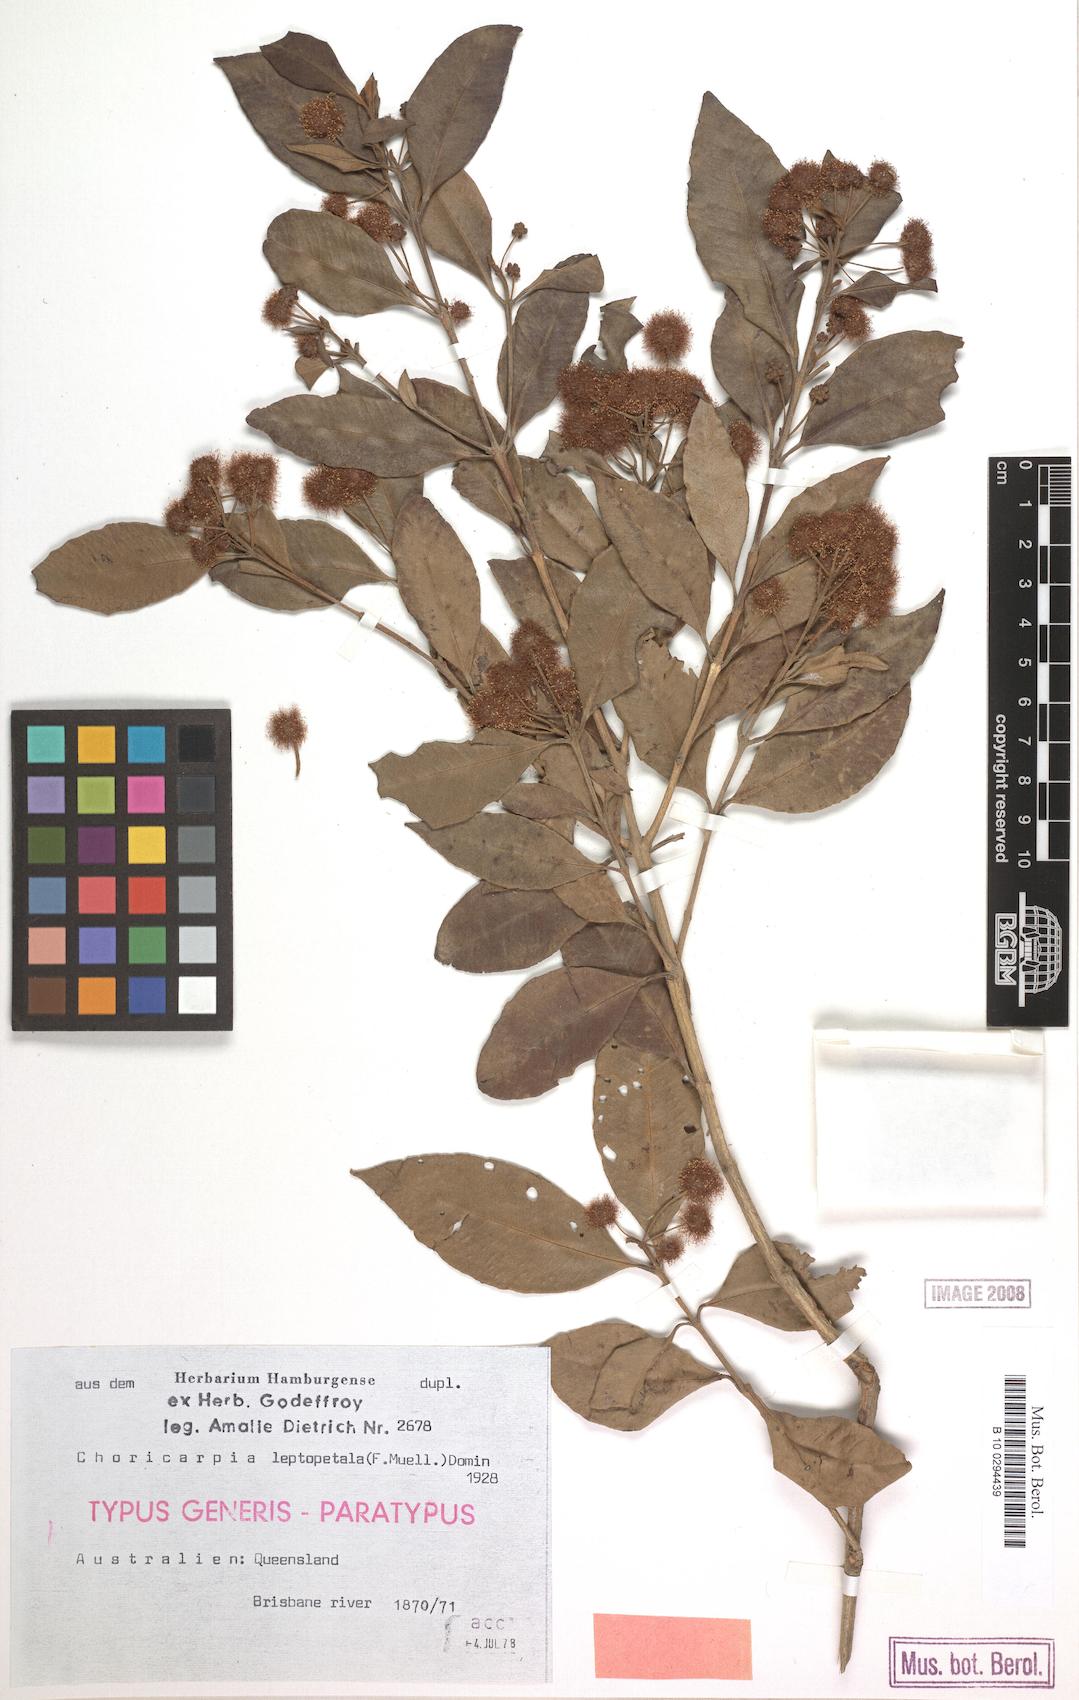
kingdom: Plantae
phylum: Tracheophyta
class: Magnoliopsida
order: Myrtales
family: Myrtaceae
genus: Backhousia
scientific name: Backhousia leptopetala
